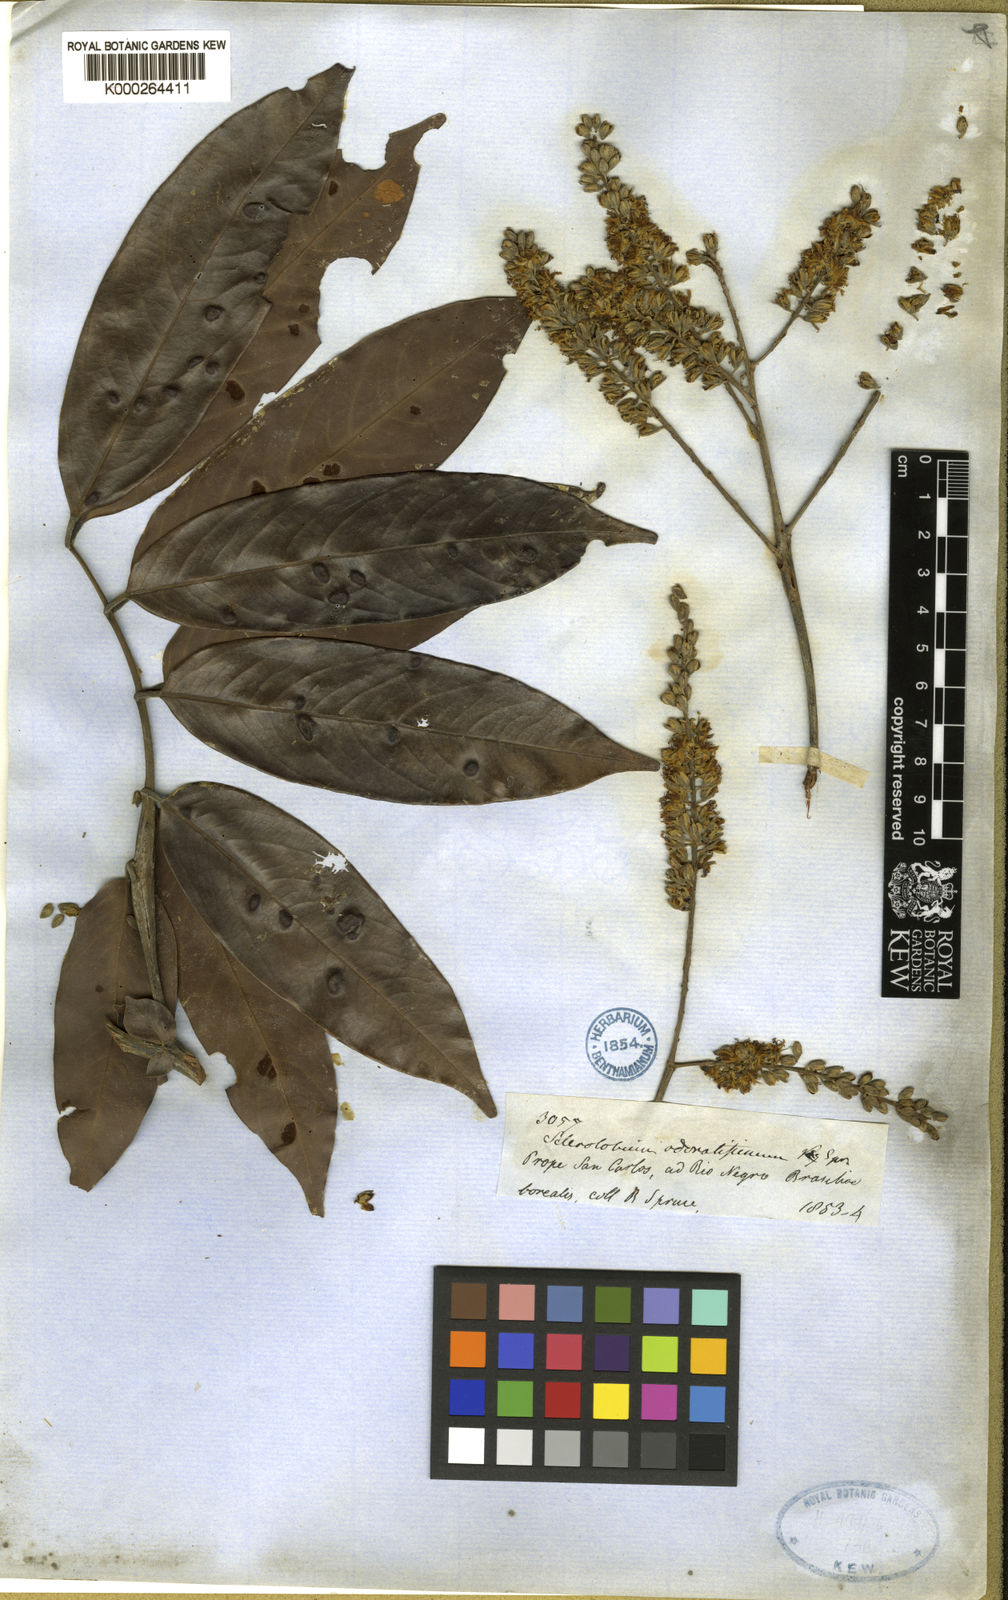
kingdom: Plantae
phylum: Tracheophyta
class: Magnoliopsida
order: Fabales
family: Fabaceae
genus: Tachigali
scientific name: Tachigali odoratissima
